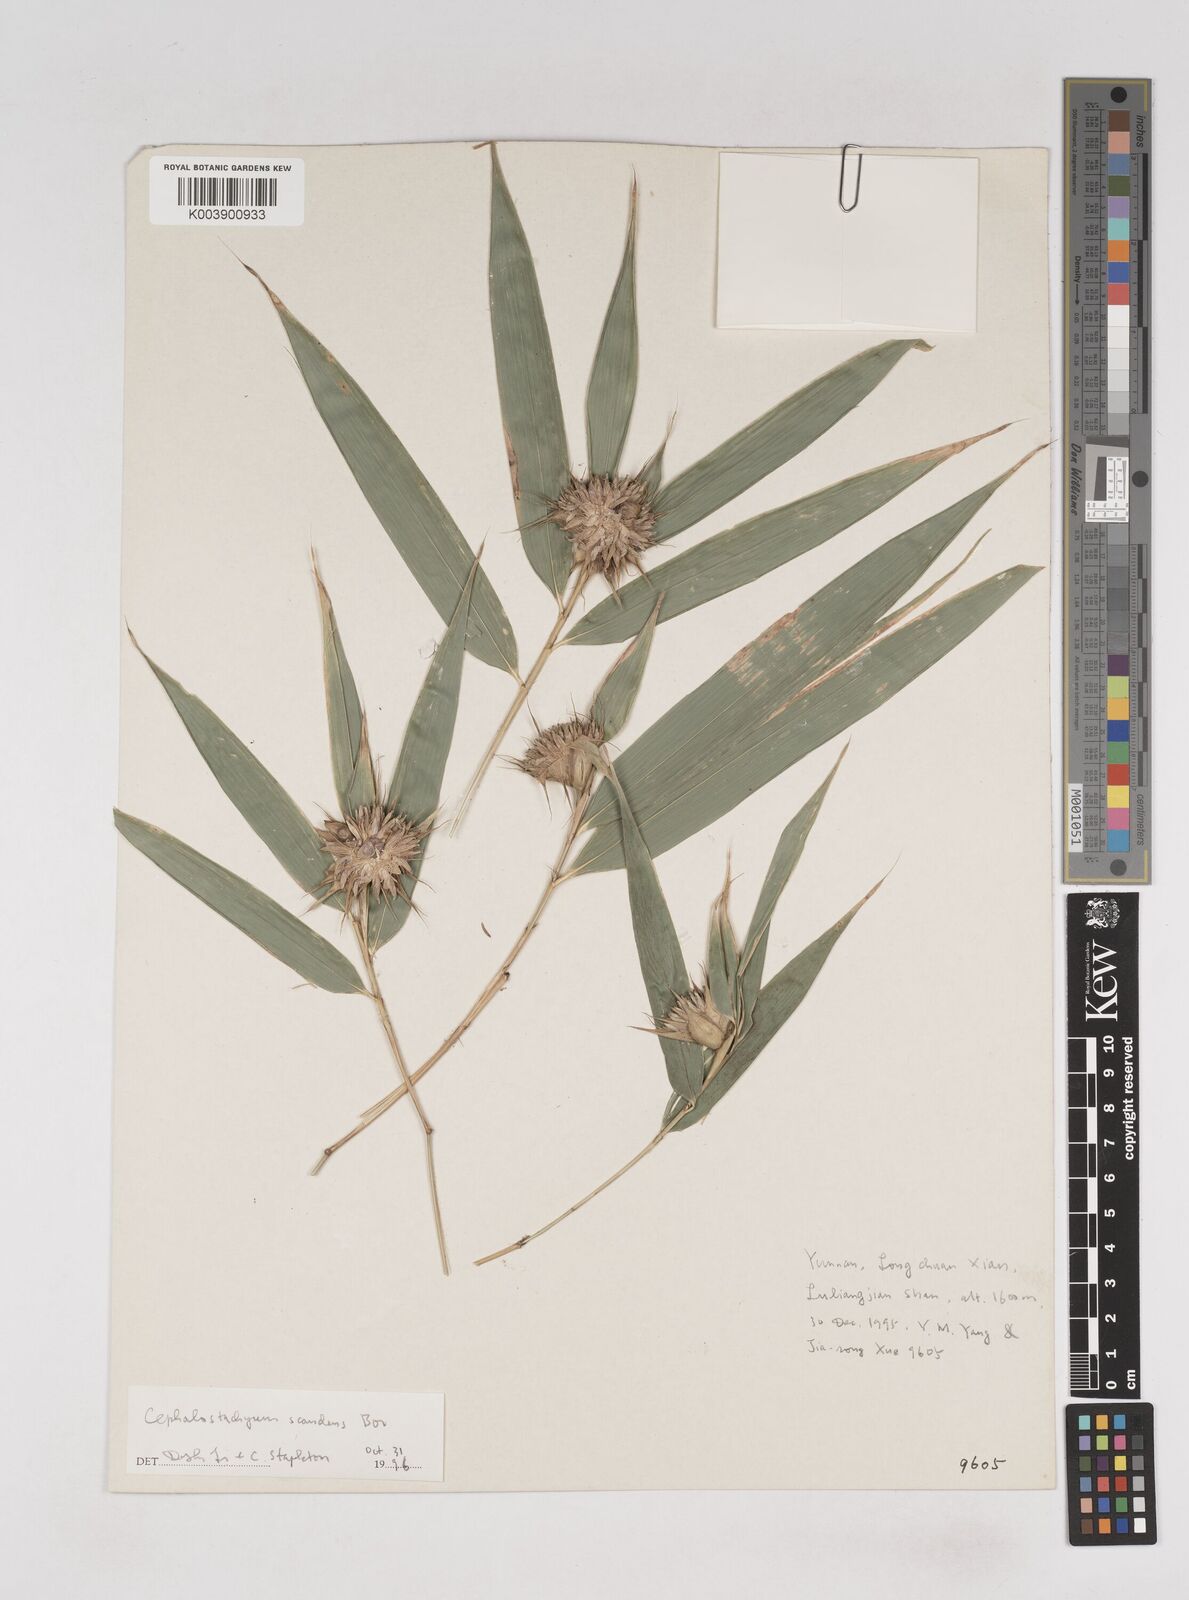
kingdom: Plantae
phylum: Tracheophyta
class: Liliopsida
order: Poales
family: Poaceae
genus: Cephalostachyum
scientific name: Cephalostachyum scandens
